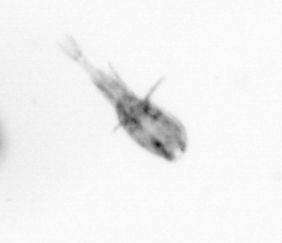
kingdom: Animalia
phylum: Arthropoda
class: Copepoda
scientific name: Copepoda
